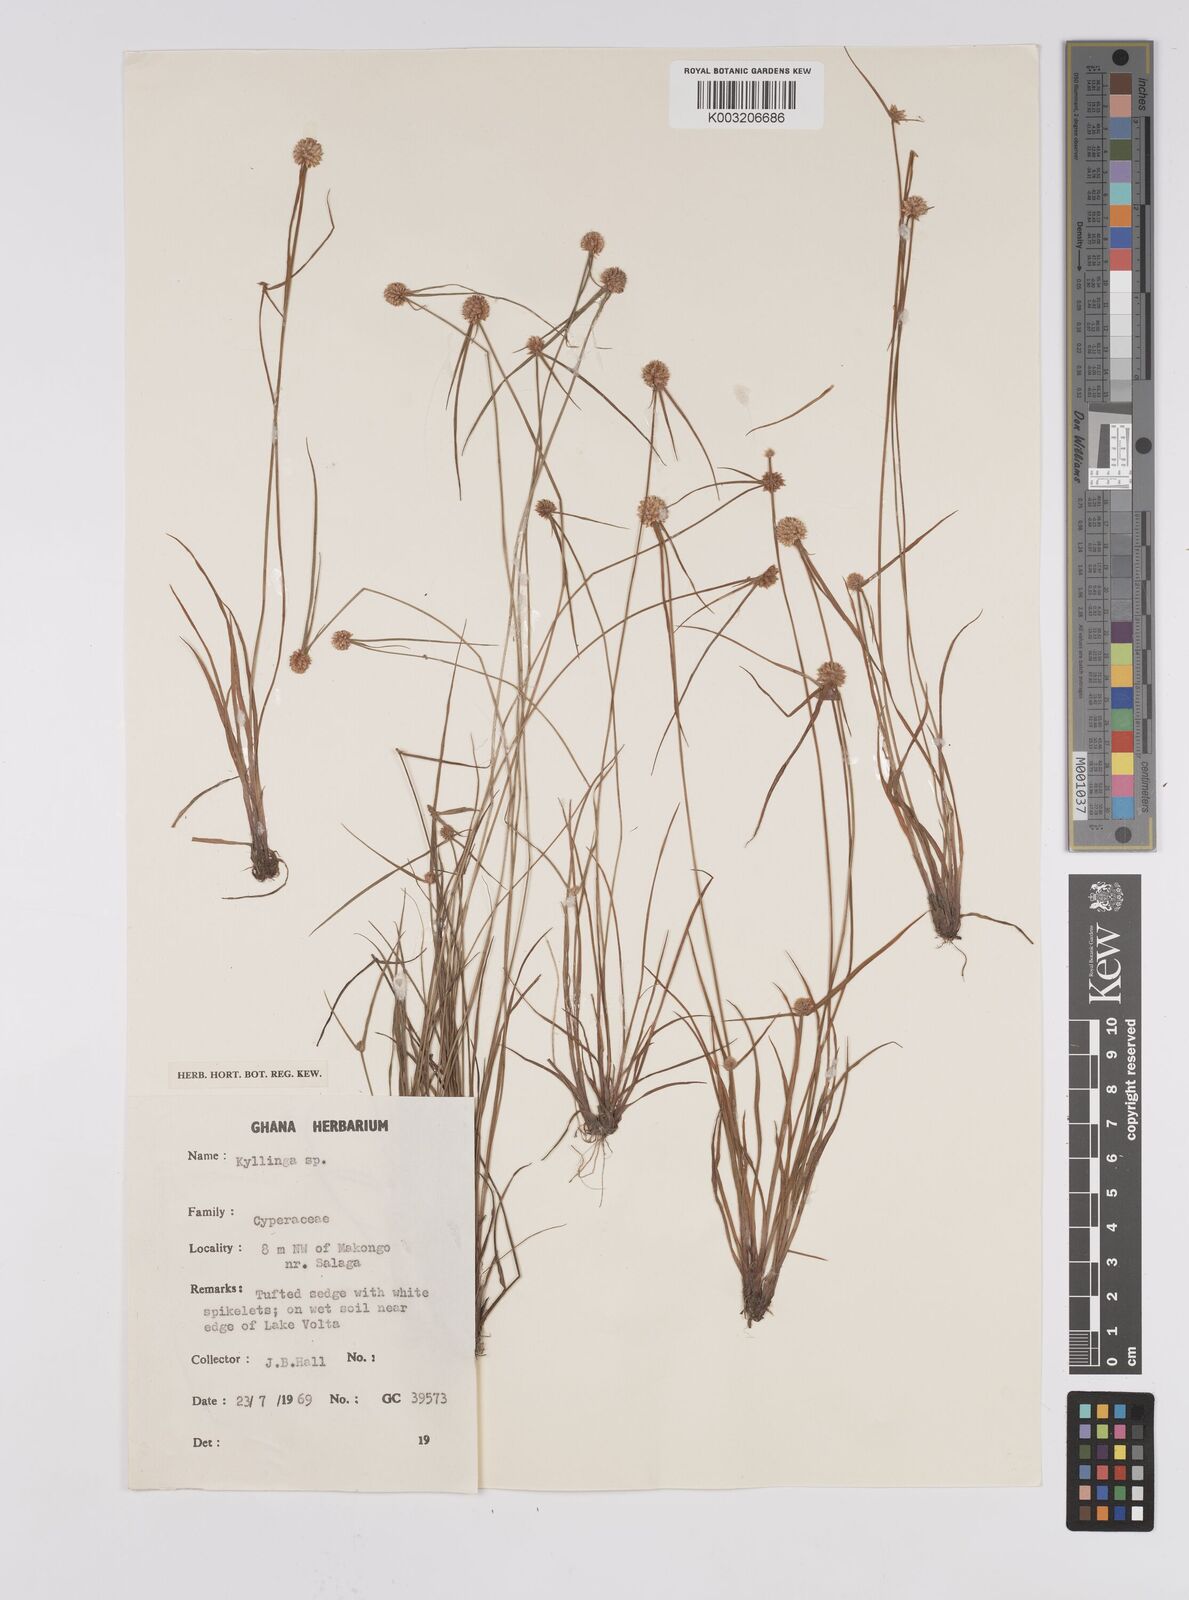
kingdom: Plantae
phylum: Tracheophyta
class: Liliopsida
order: Poales
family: Cyperaceae
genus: Cyperus
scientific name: Cyperus echinatus
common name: Teasel sedge
